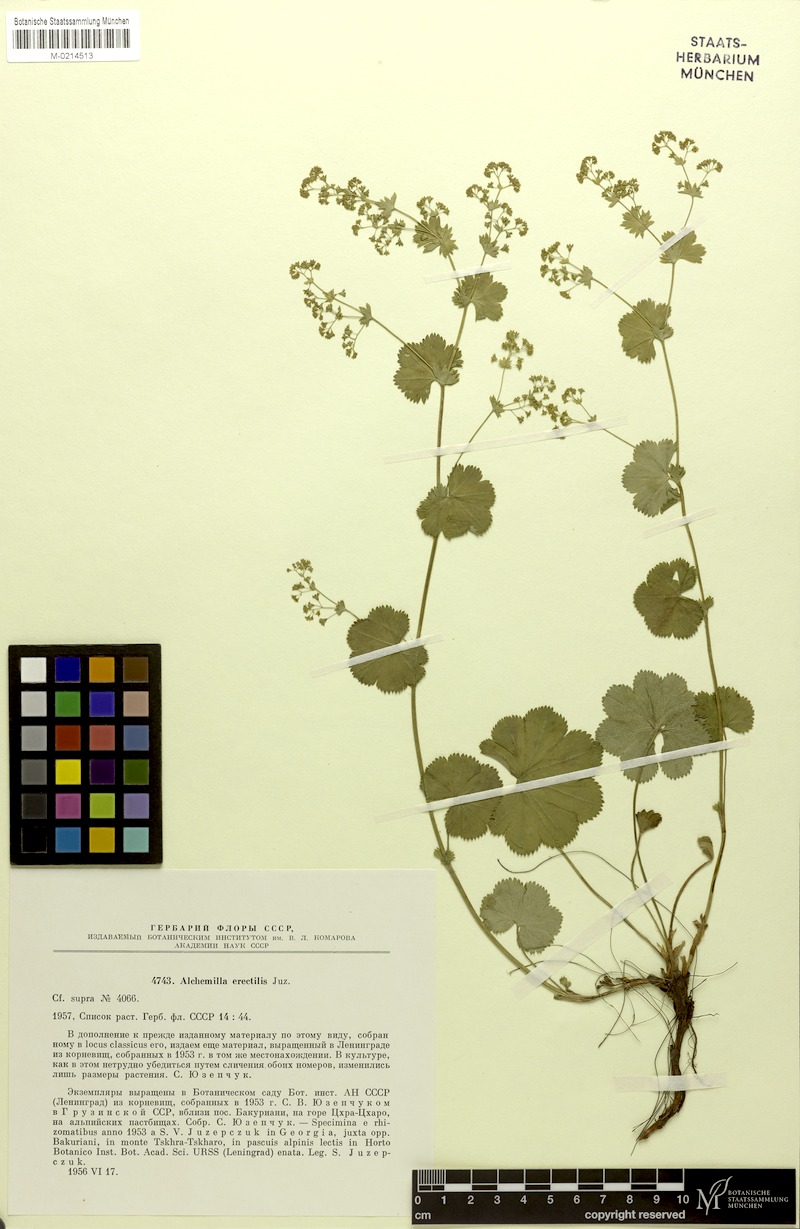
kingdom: Plantae
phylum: Tracheophyta
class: Magnoliopsida
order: Rosales
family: Rosaceae
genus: Alchemilla
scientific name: Alchemilla erectilis
